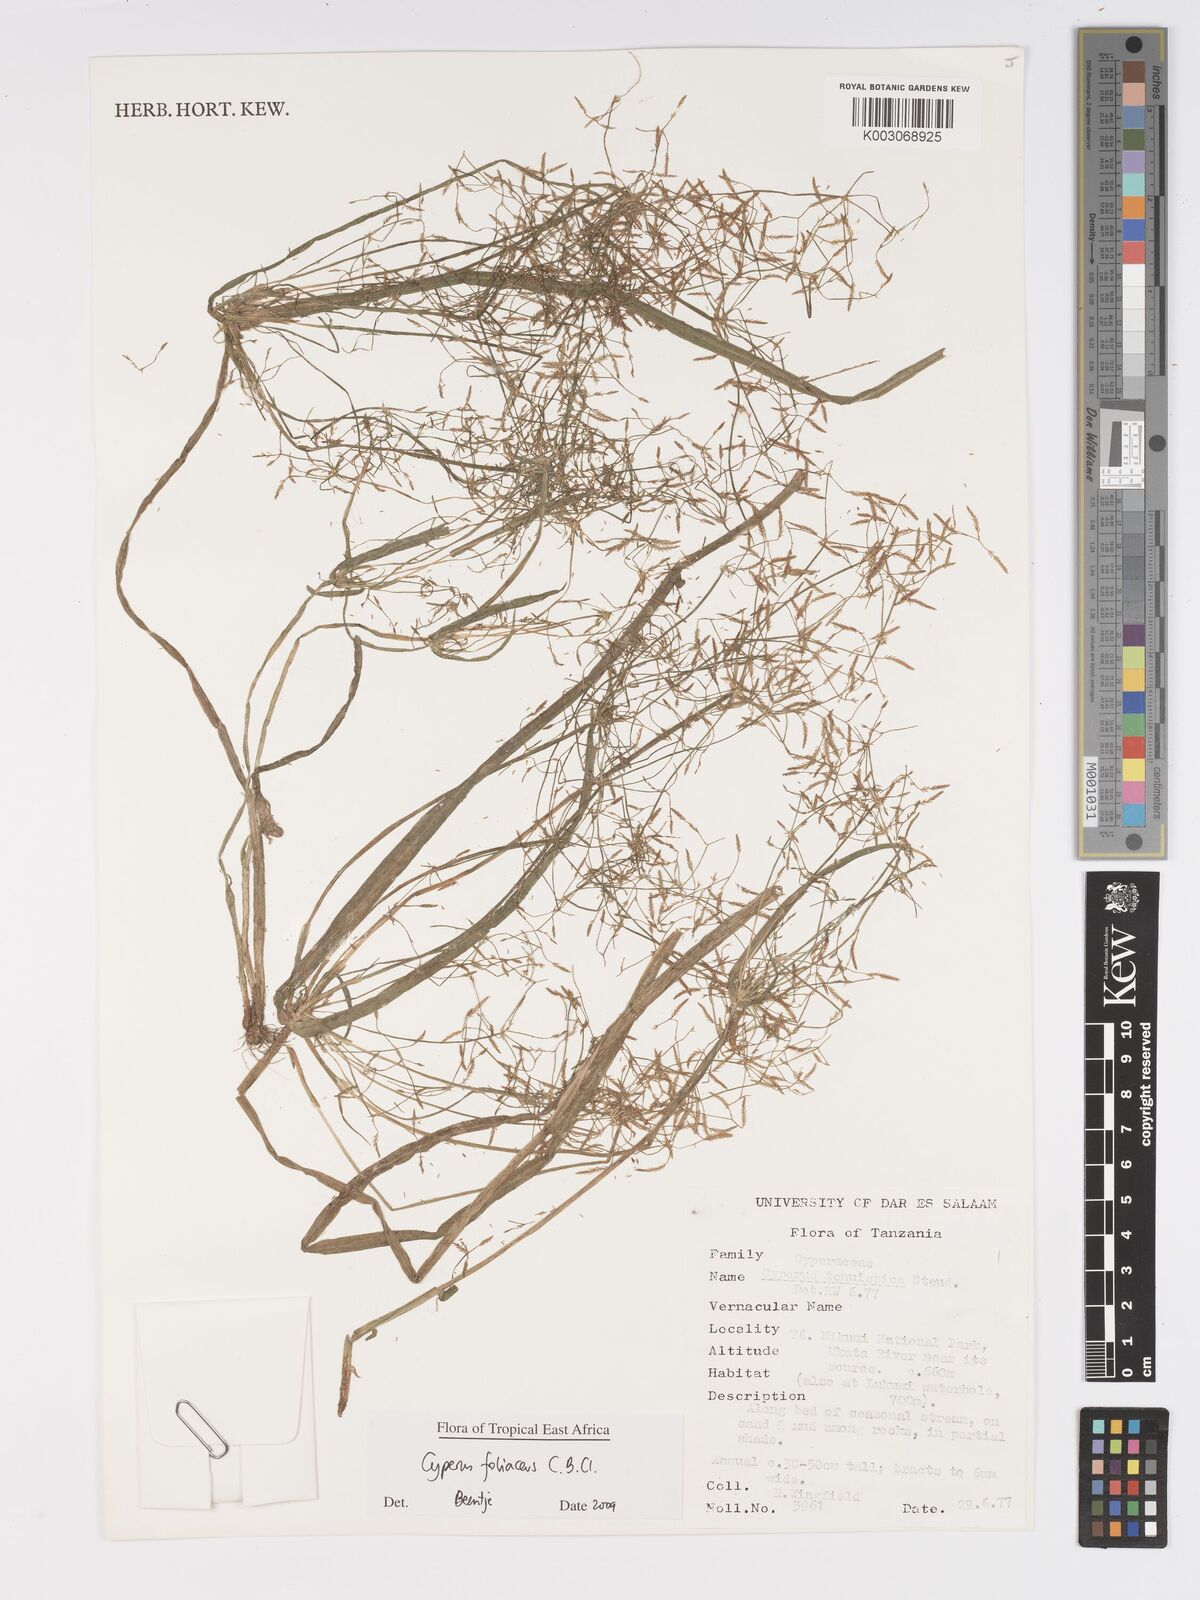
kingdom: Plantae
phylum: Tracheophyta
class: Liliopsida
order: Poales
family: Cyperaceae
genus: Cyperus
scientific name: Cyperus foliaceus
